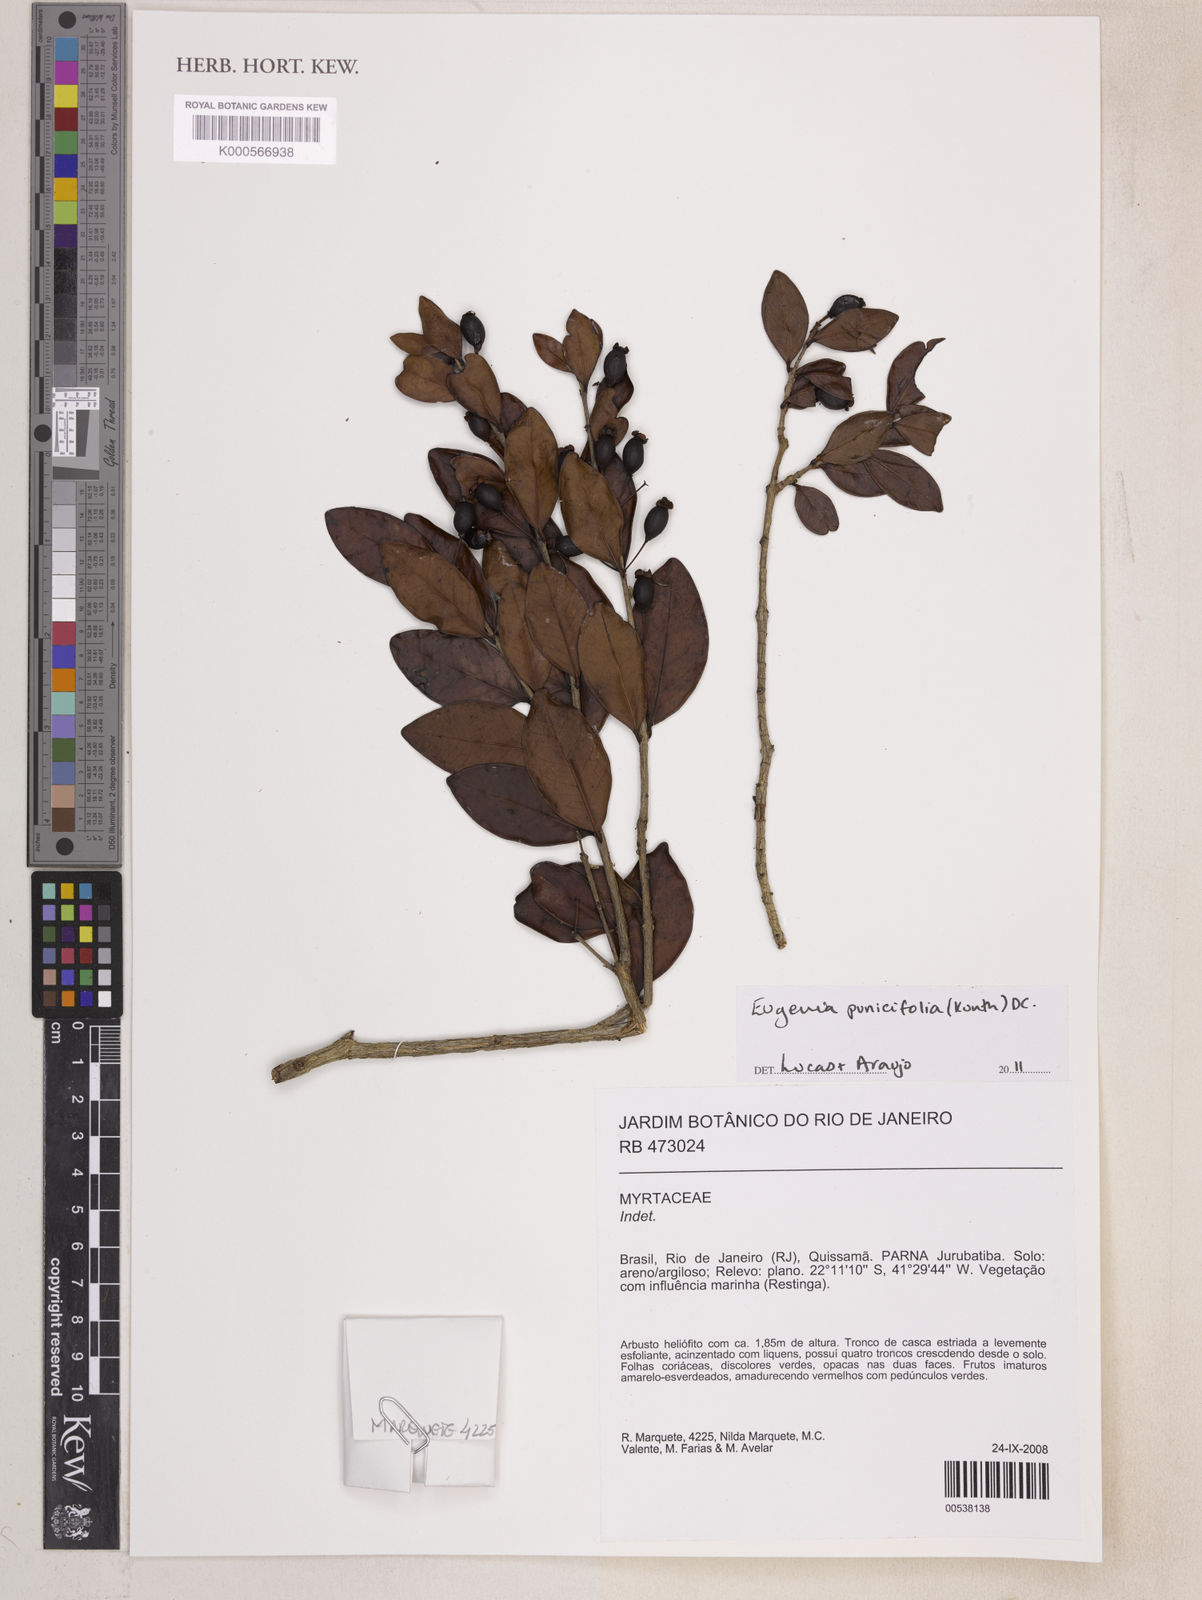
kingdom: Plantae
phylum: Tracheophyta
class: Magnoliopsida
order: Myrtales
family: Myrtaceae
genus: Eugenia
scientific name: Eugenia punicifolia
